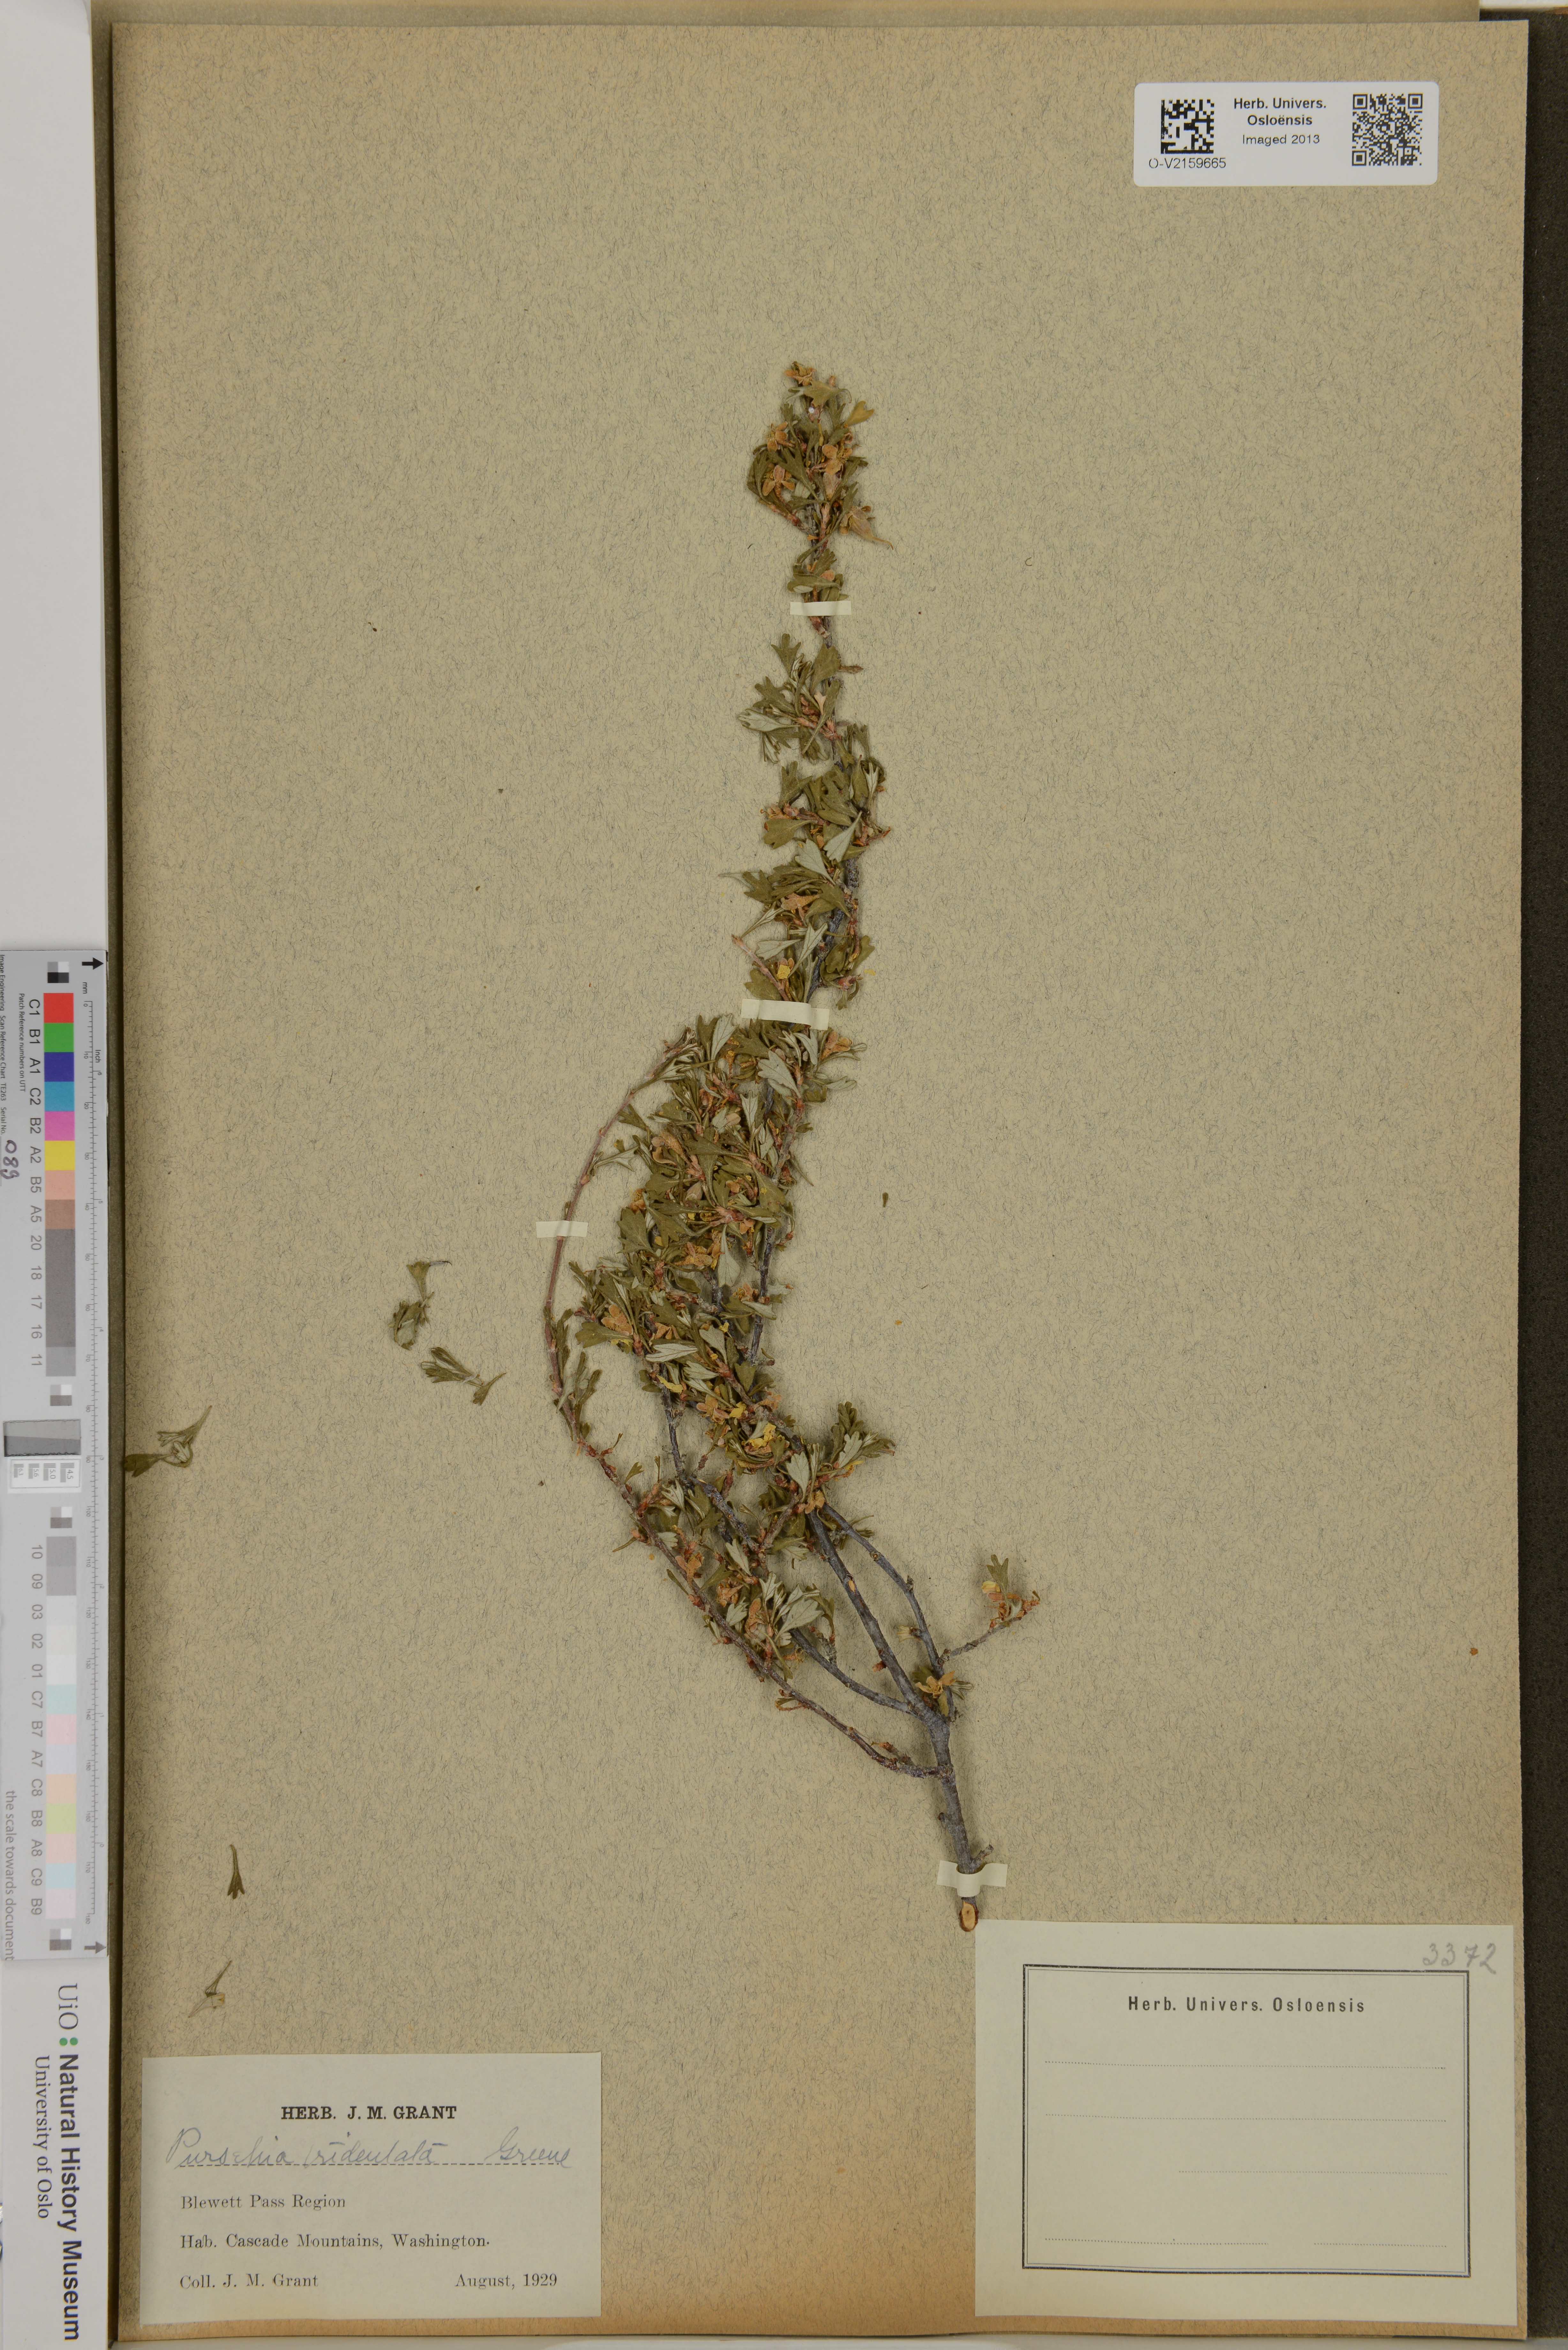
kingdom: Plantae
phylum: Tracheophyta
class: Magnoliopsida
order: Rosales
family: Rosaceae
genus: Purshia
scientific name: Purshia tridentata
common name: Antelope bitterbrush
